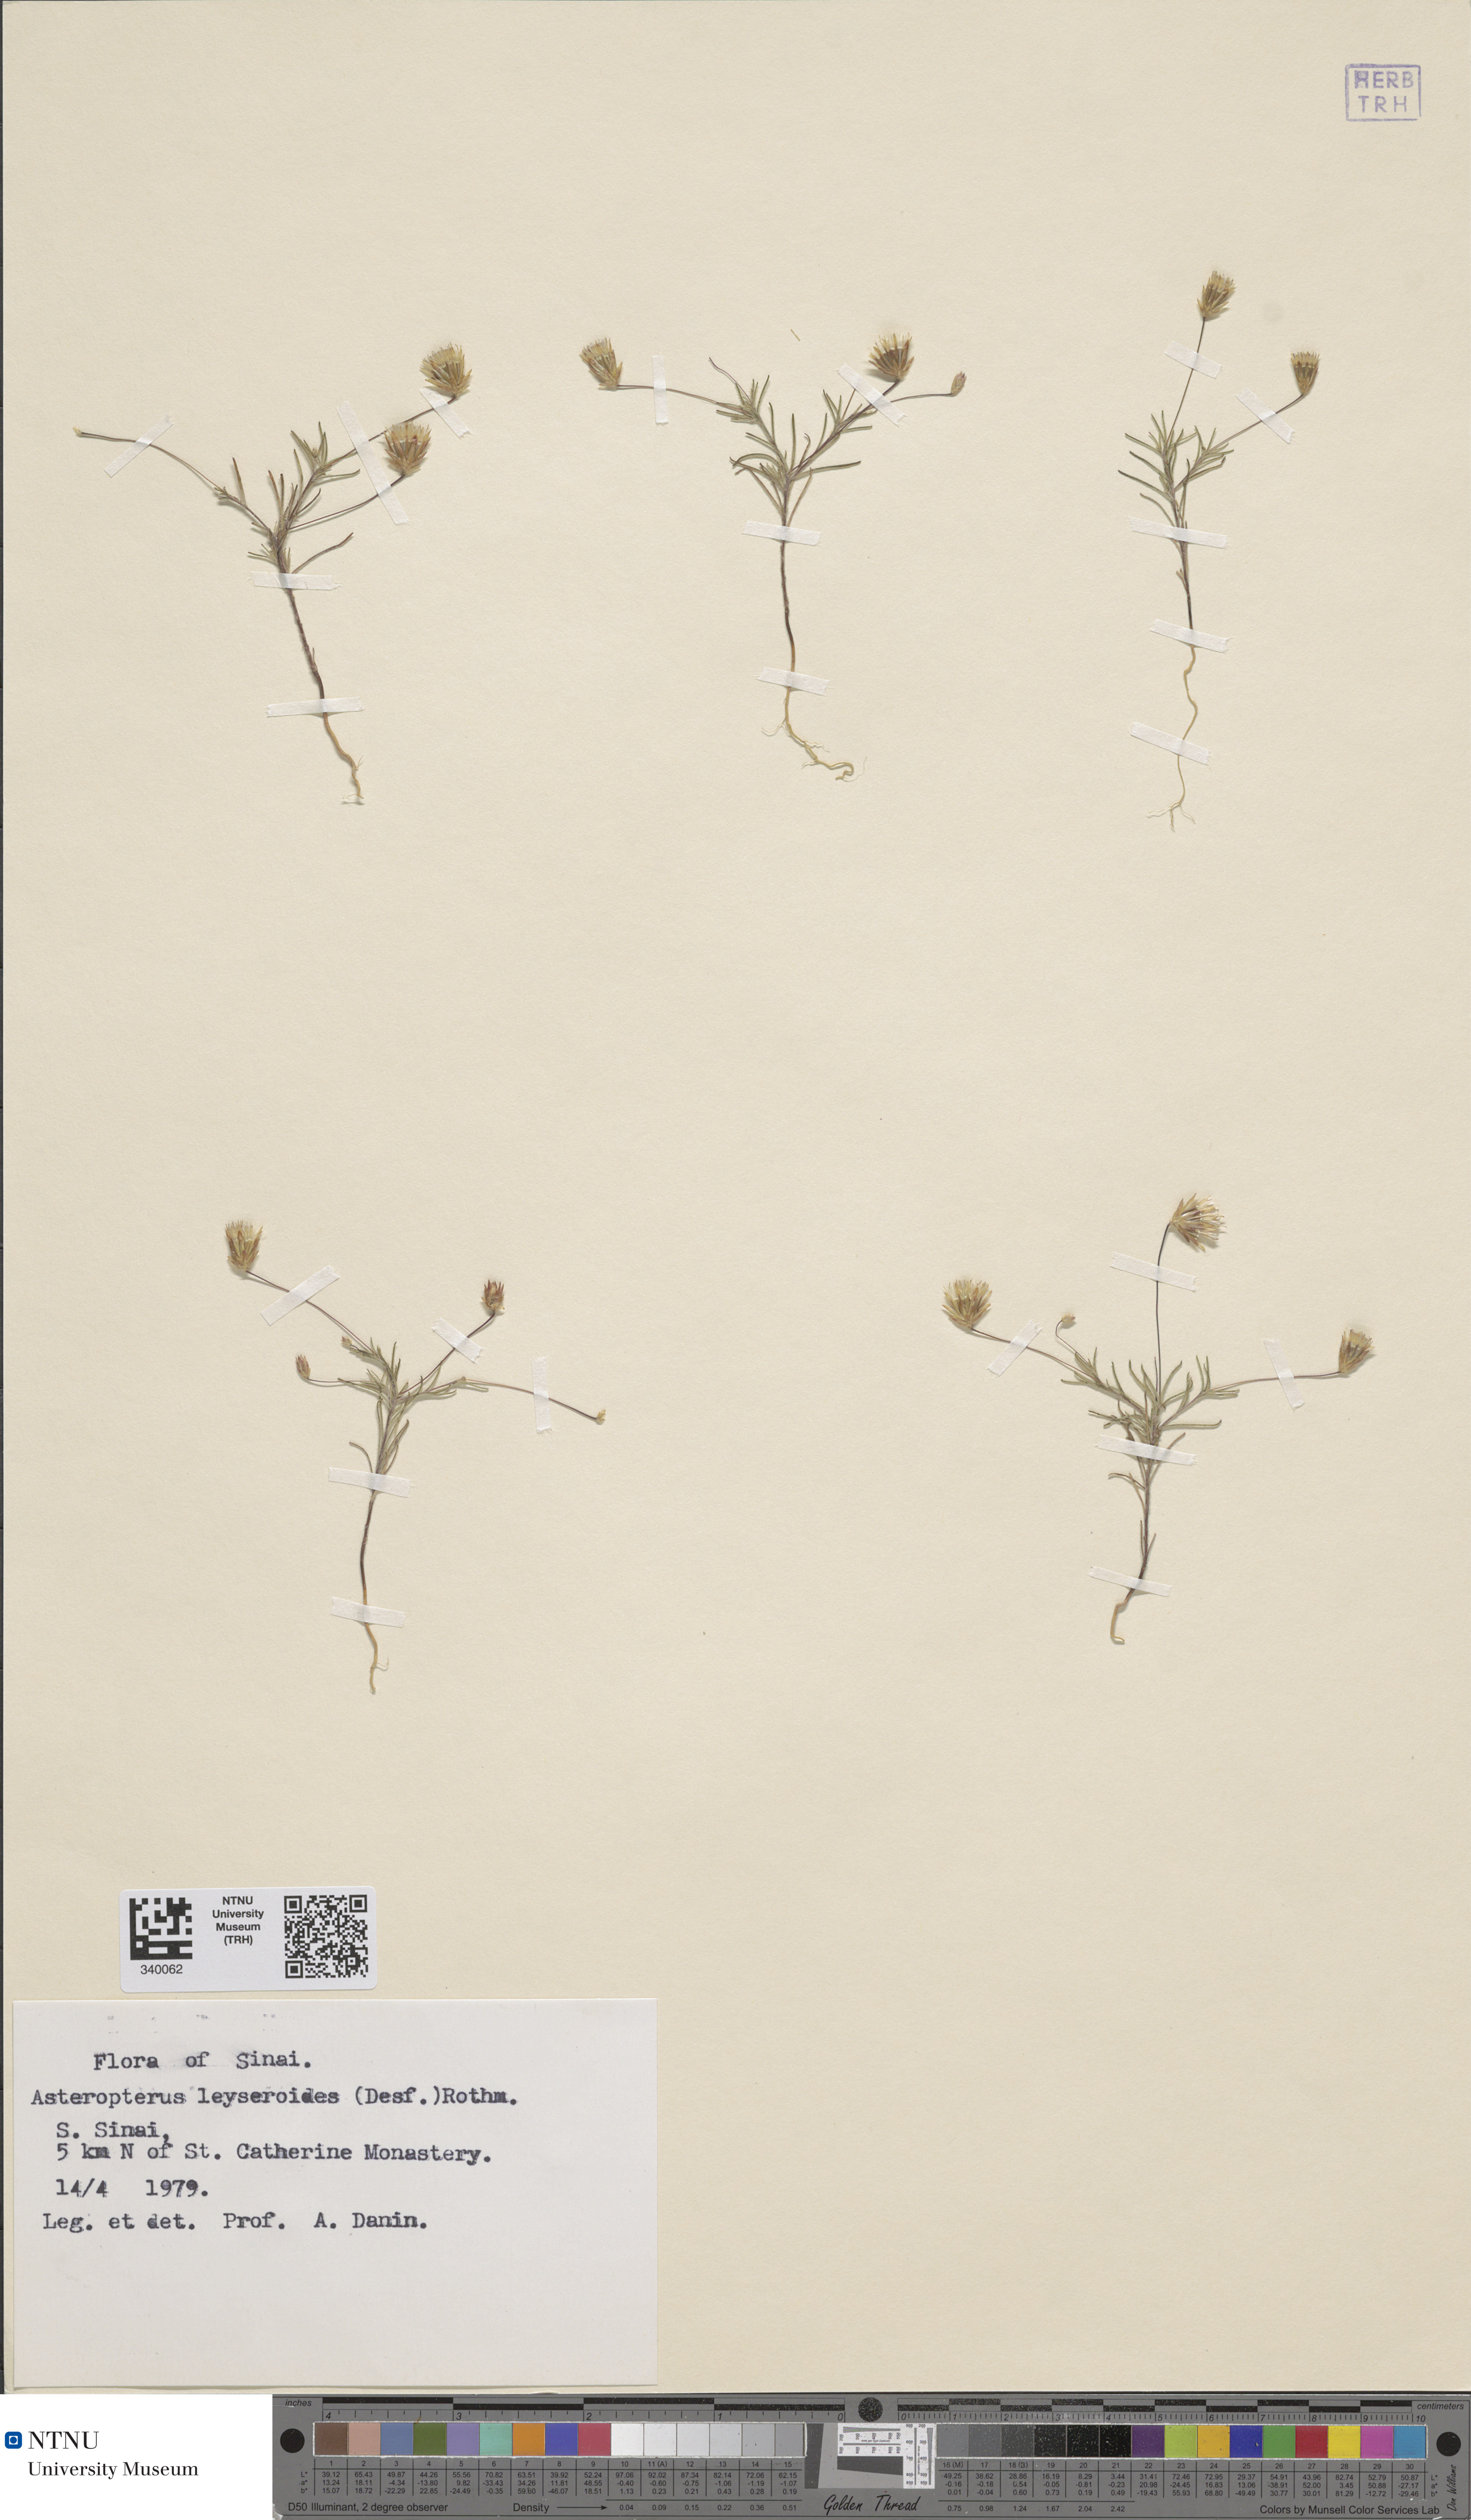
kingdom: Plantae
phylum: Tracheophyta
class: Magnoliopsida
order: Asterales
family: Asteraceae
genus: Leysera
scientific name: Leysera leyseroides
